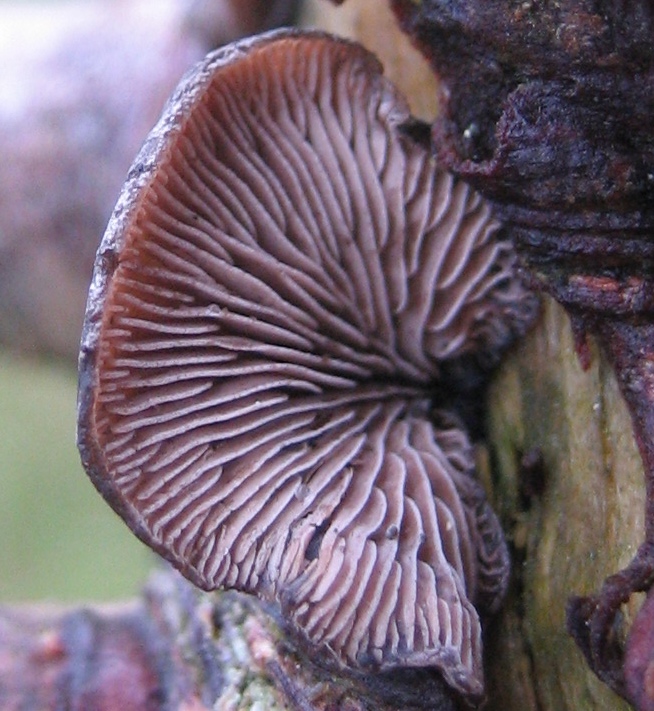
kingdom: Fungi
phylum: Basidiomycota
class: Agaricomycetes
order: Agaricales
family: Pleurotaceae
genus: Resupinatus
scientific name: Resupinatus trichotis
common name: mørkfiltet barkhat
